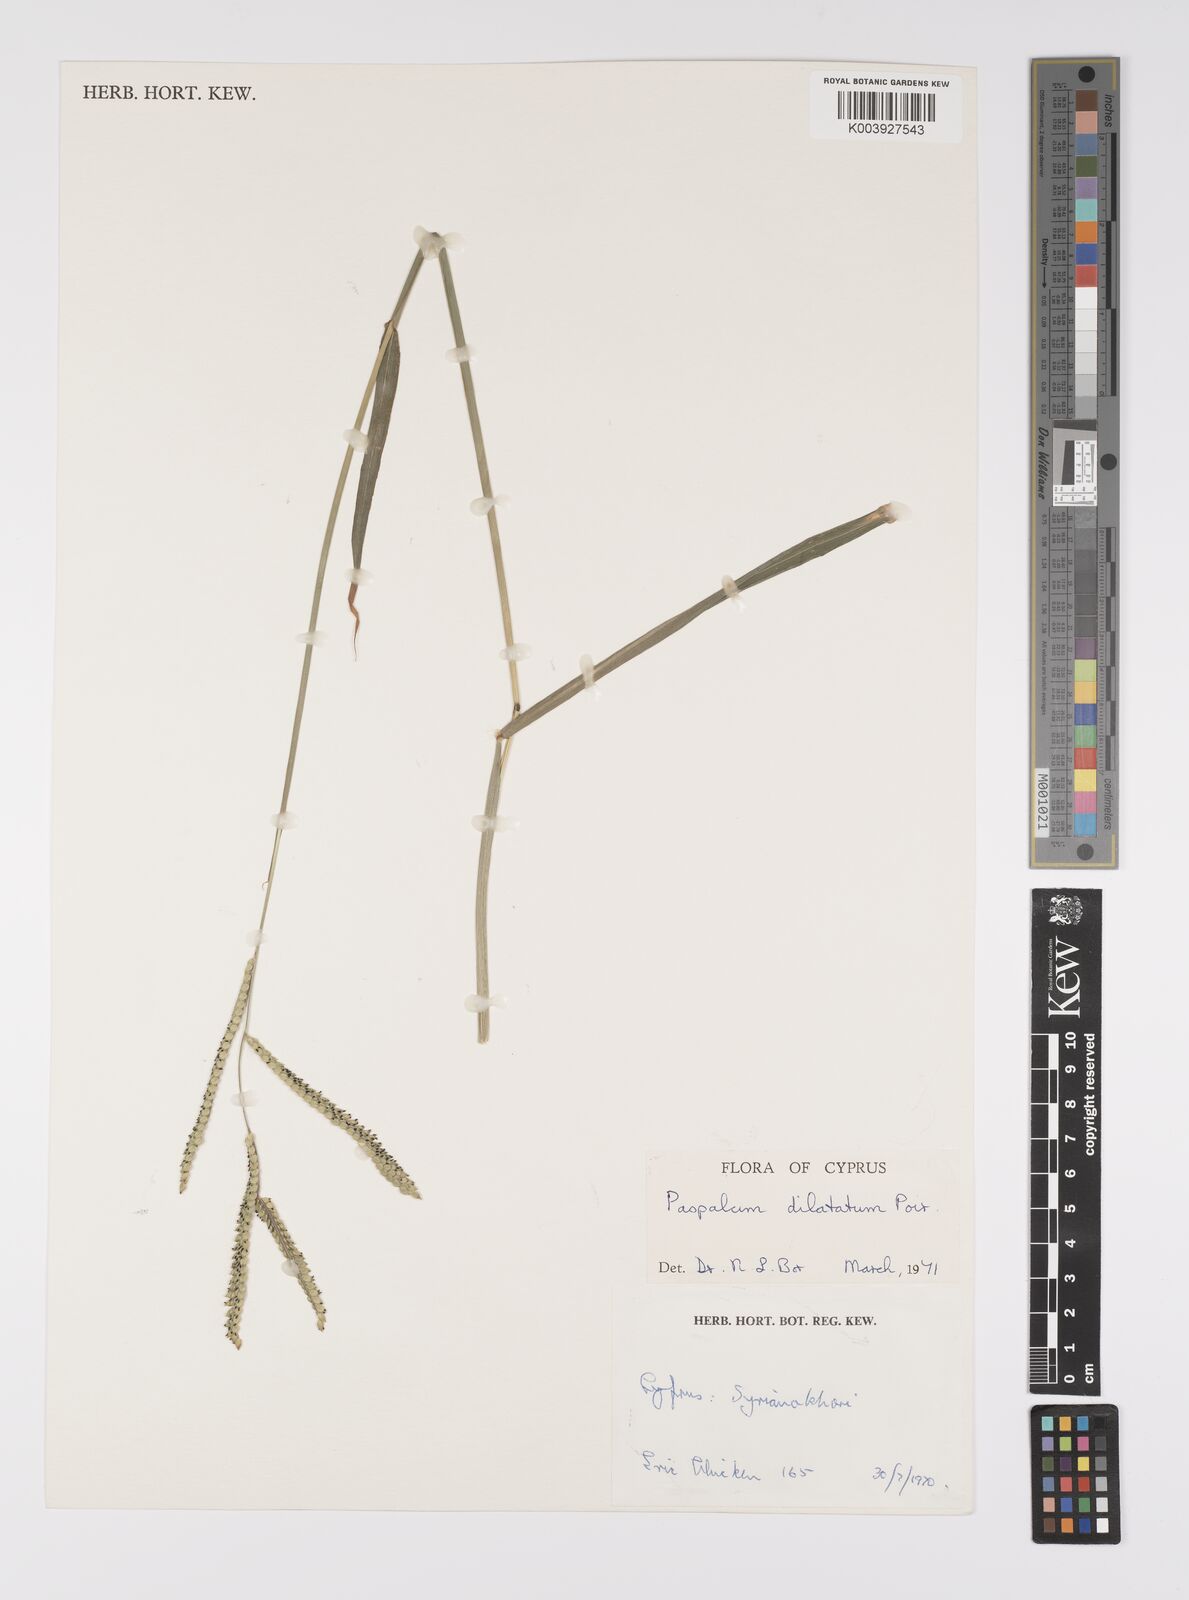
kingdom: Plantae
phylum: Tracheophyta
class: Liliopsida
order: Poales
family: Poaceae
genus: Paspalum
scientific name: Paspalum dilatatum
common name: Dallisgrass
